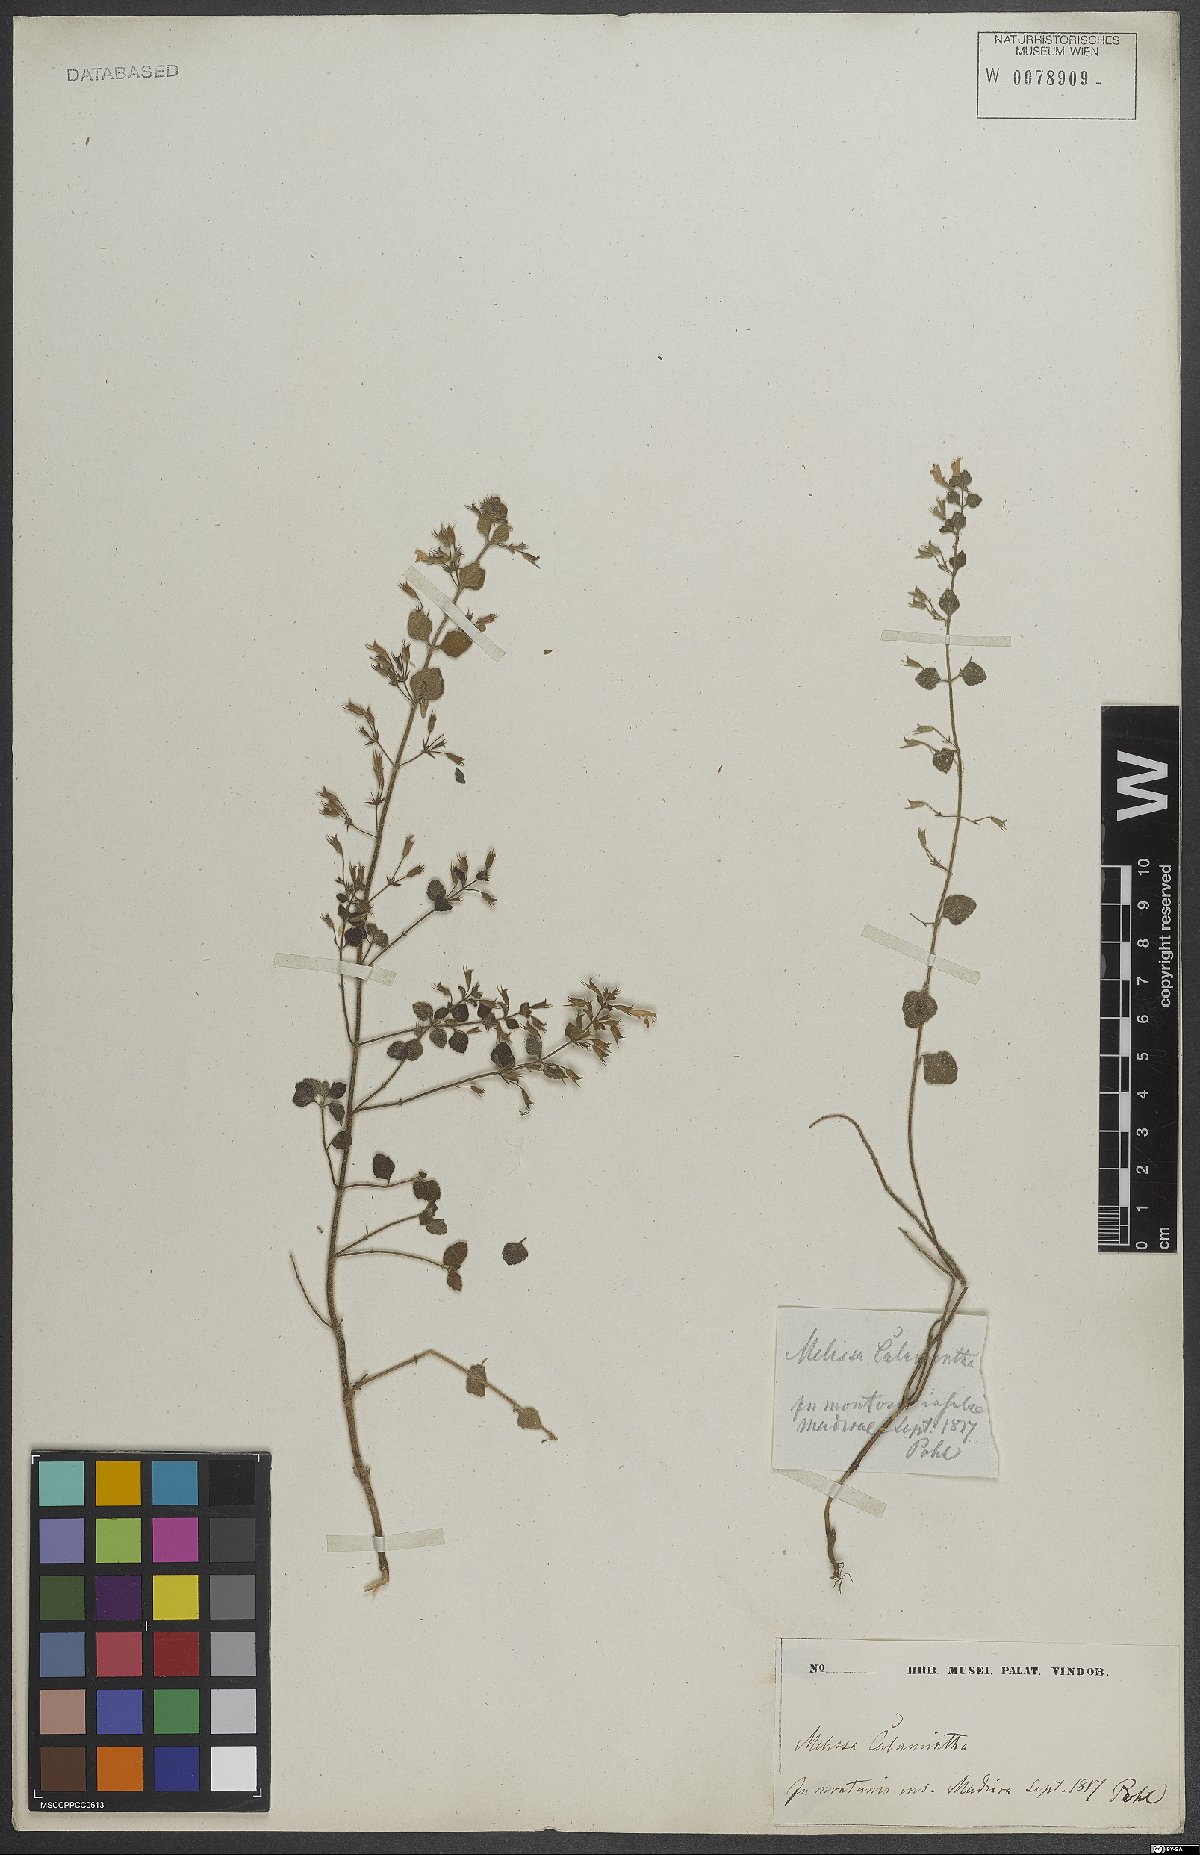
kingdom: Plantae
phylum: Tracheophyta
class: Magnoliopsida
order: Lamiales
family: Lamiaceae
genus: Clinopodium
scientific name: Clinopodium nepeta
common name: Lesser calamint
